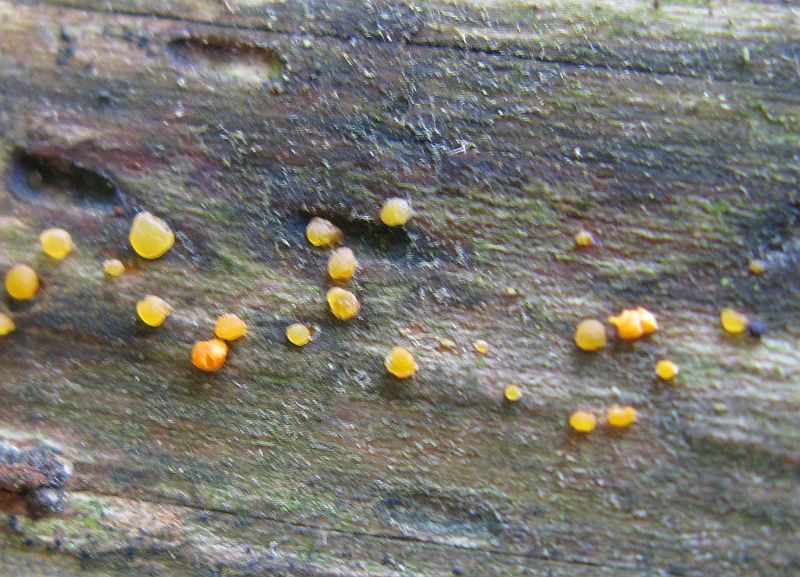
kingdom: Fungi
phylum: Basidiomycota
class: Dacrymycetes
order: Dacrymycetales
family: Dacrymycetaceae
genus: Dacrymyces
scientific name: Dacrymyces stillatus
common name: almindelig tåresvamp
